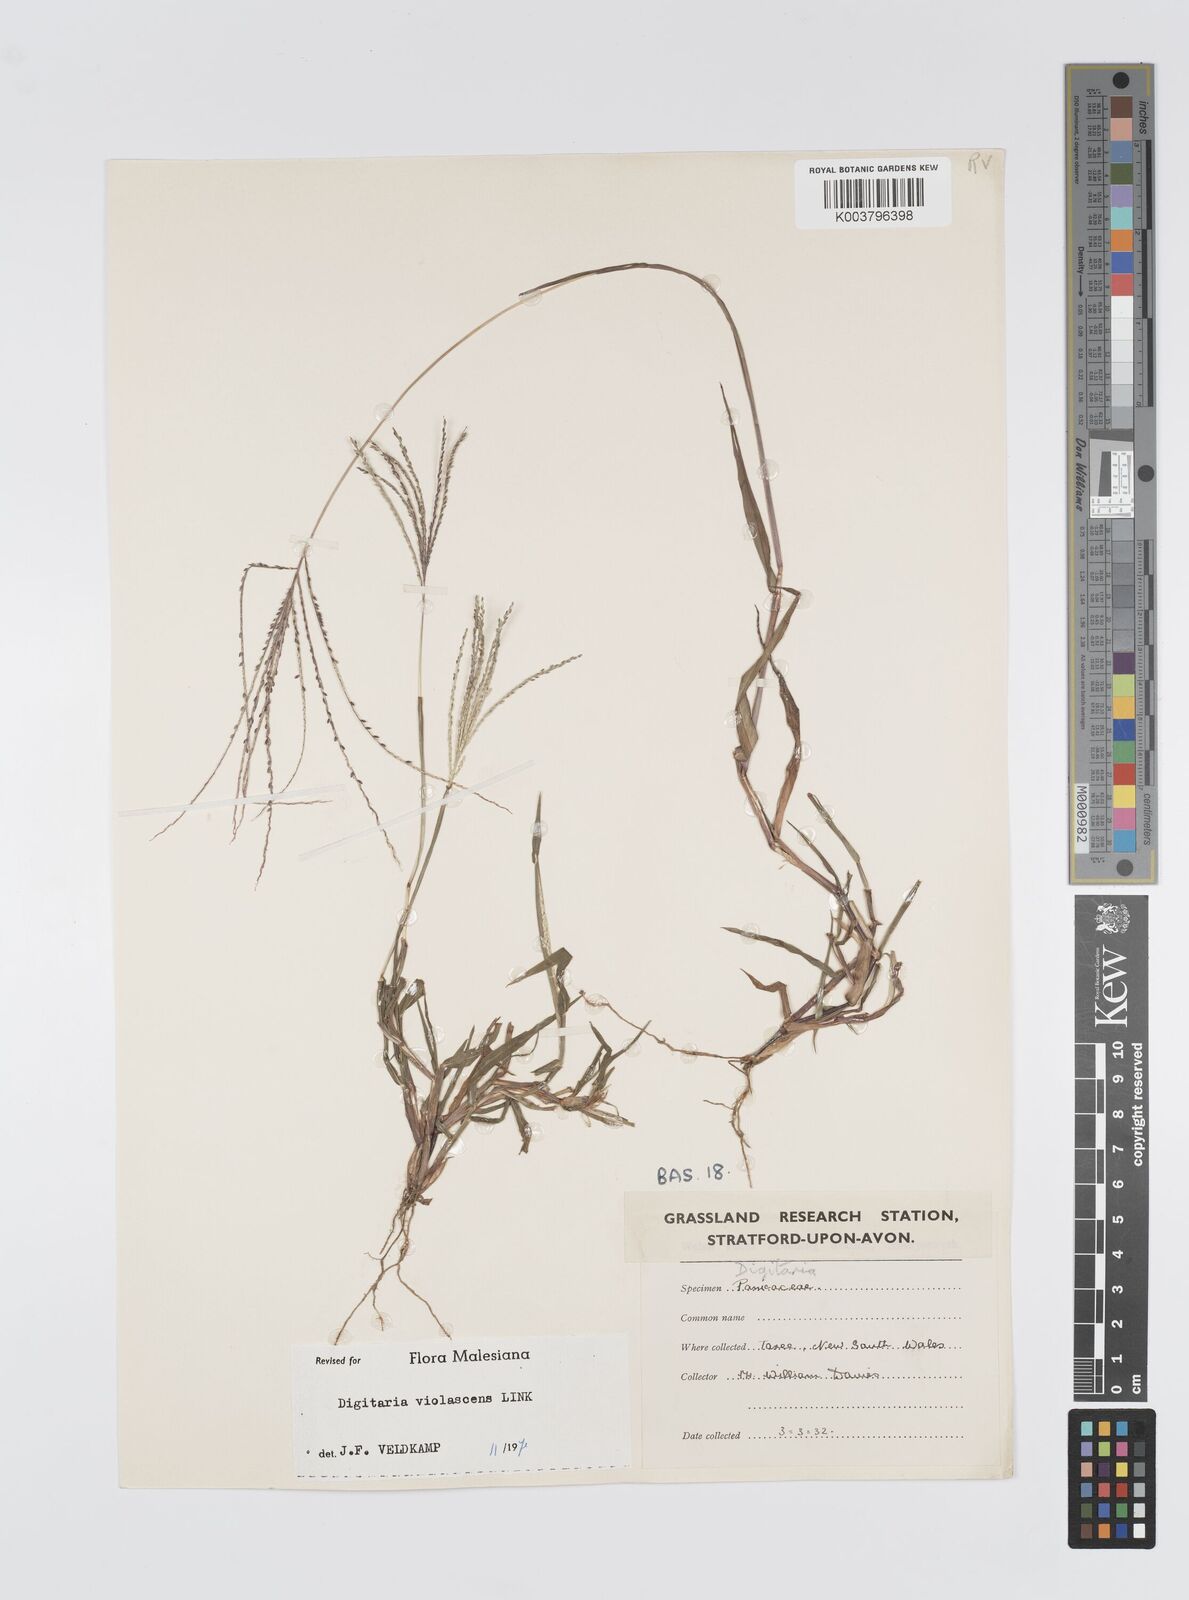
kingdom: Plantae
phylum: Tracheophyta
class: Liliopsida
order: Poales
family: Poaceae
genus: Digitaria
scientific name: Digitaria violascens
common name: Violet crabgrass
